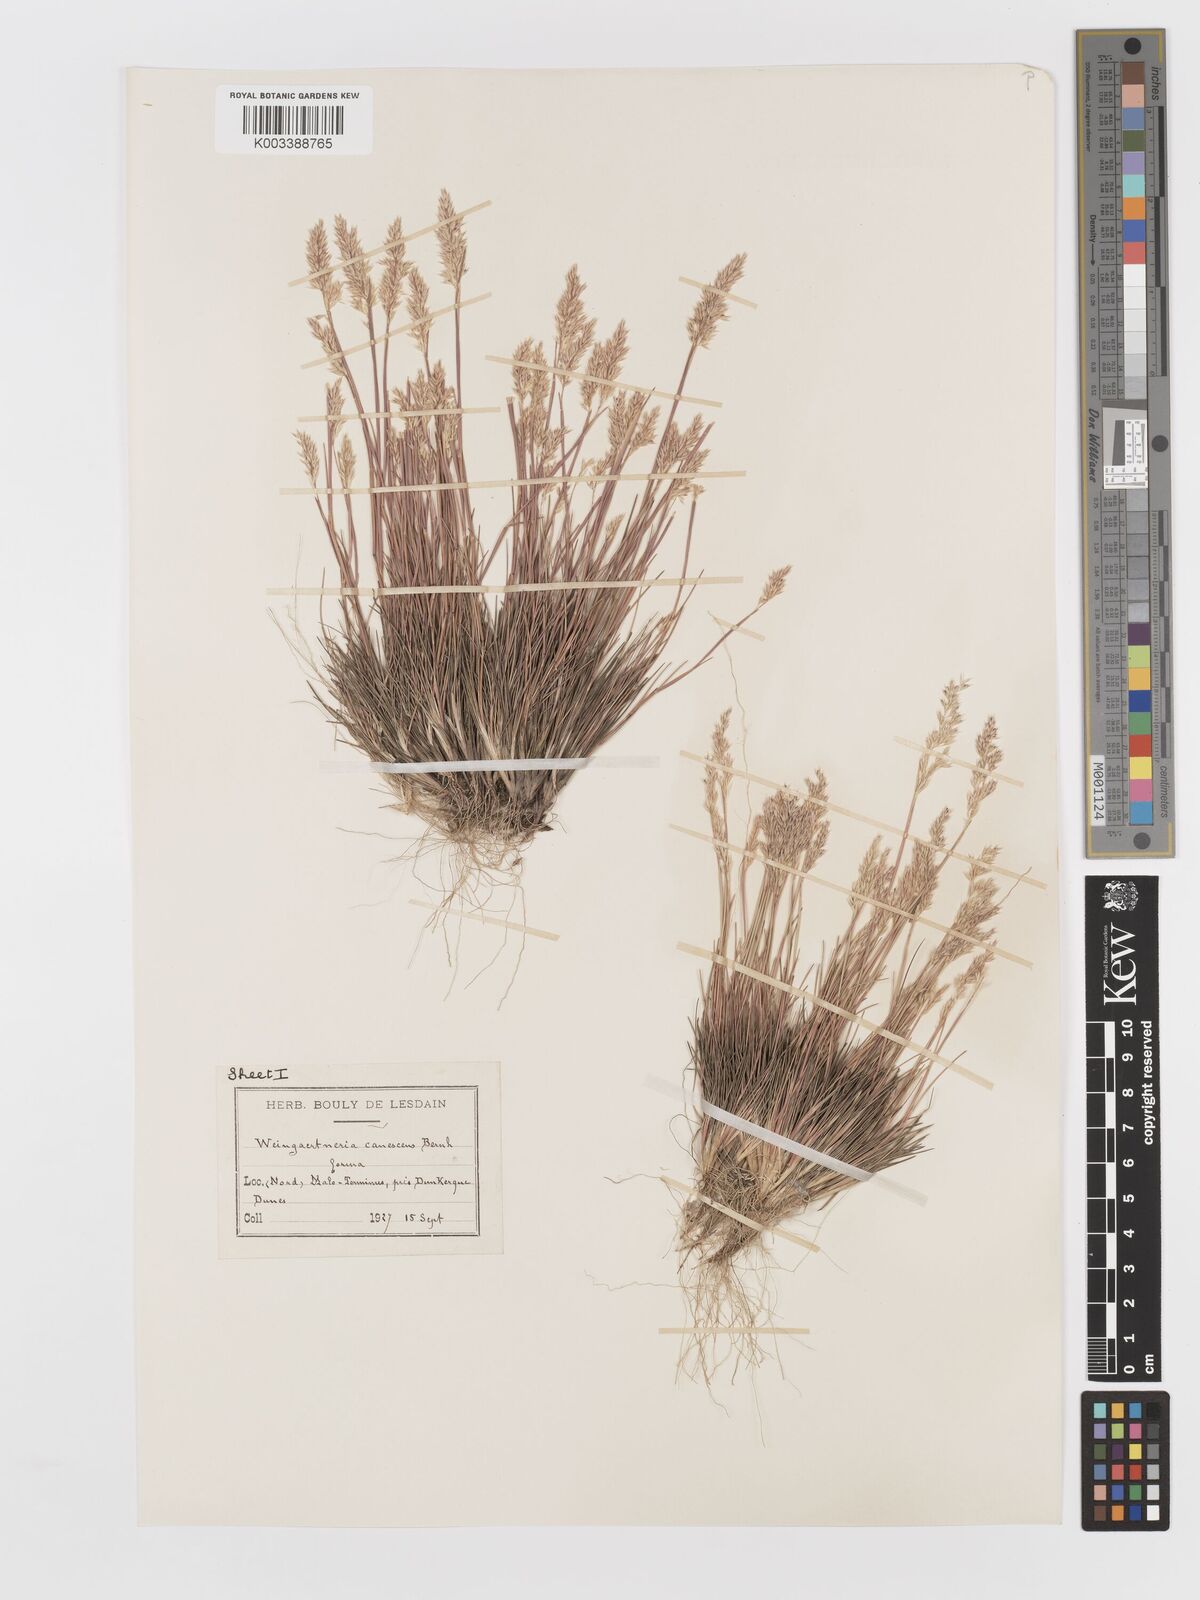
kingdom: Plantae
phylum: Tracheophyta
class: Liliopsida
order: Poales
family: Poaceae
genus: Corynephorus
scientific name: Corynephorus canescens
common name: Grey hair-grass
